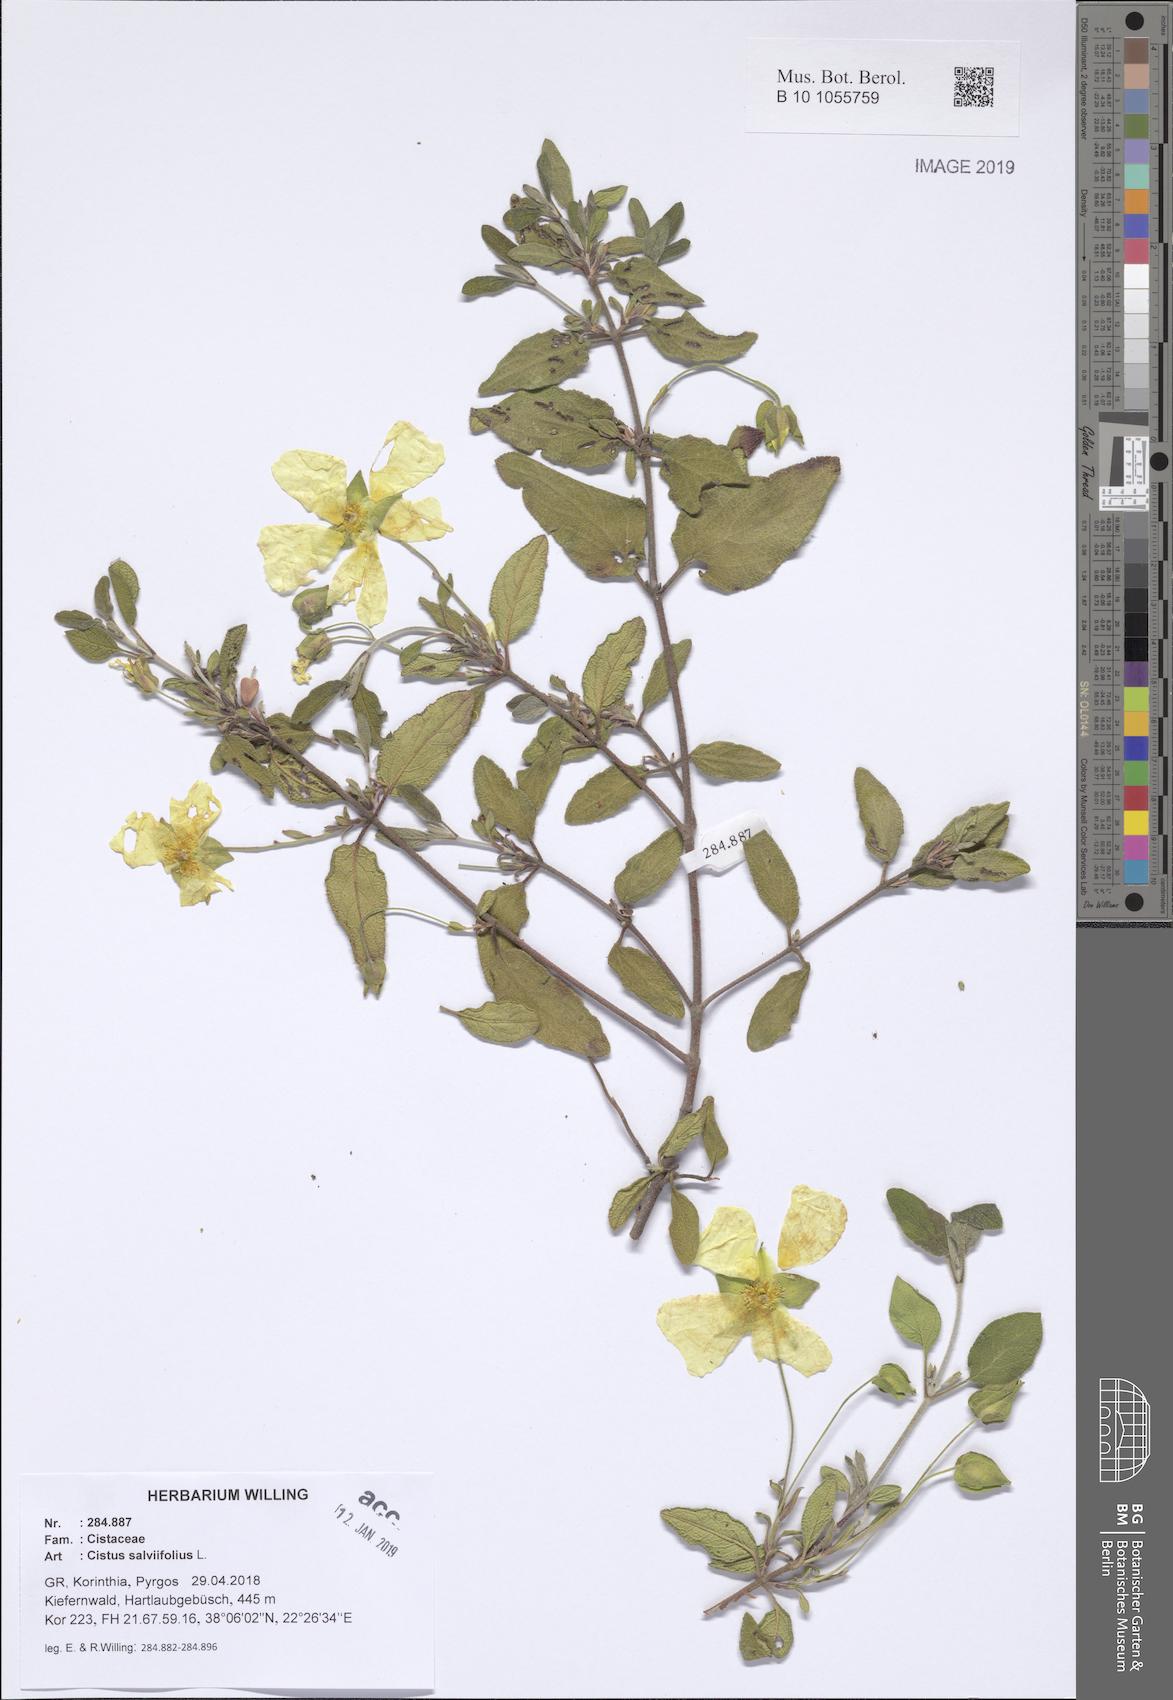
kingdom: Plantae
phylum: Tracheophyta
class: Magnoliopsida
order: Malvales
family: Cistaceae
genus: Cistus
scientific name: Cistus salviifolius
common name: Salvia cistus
